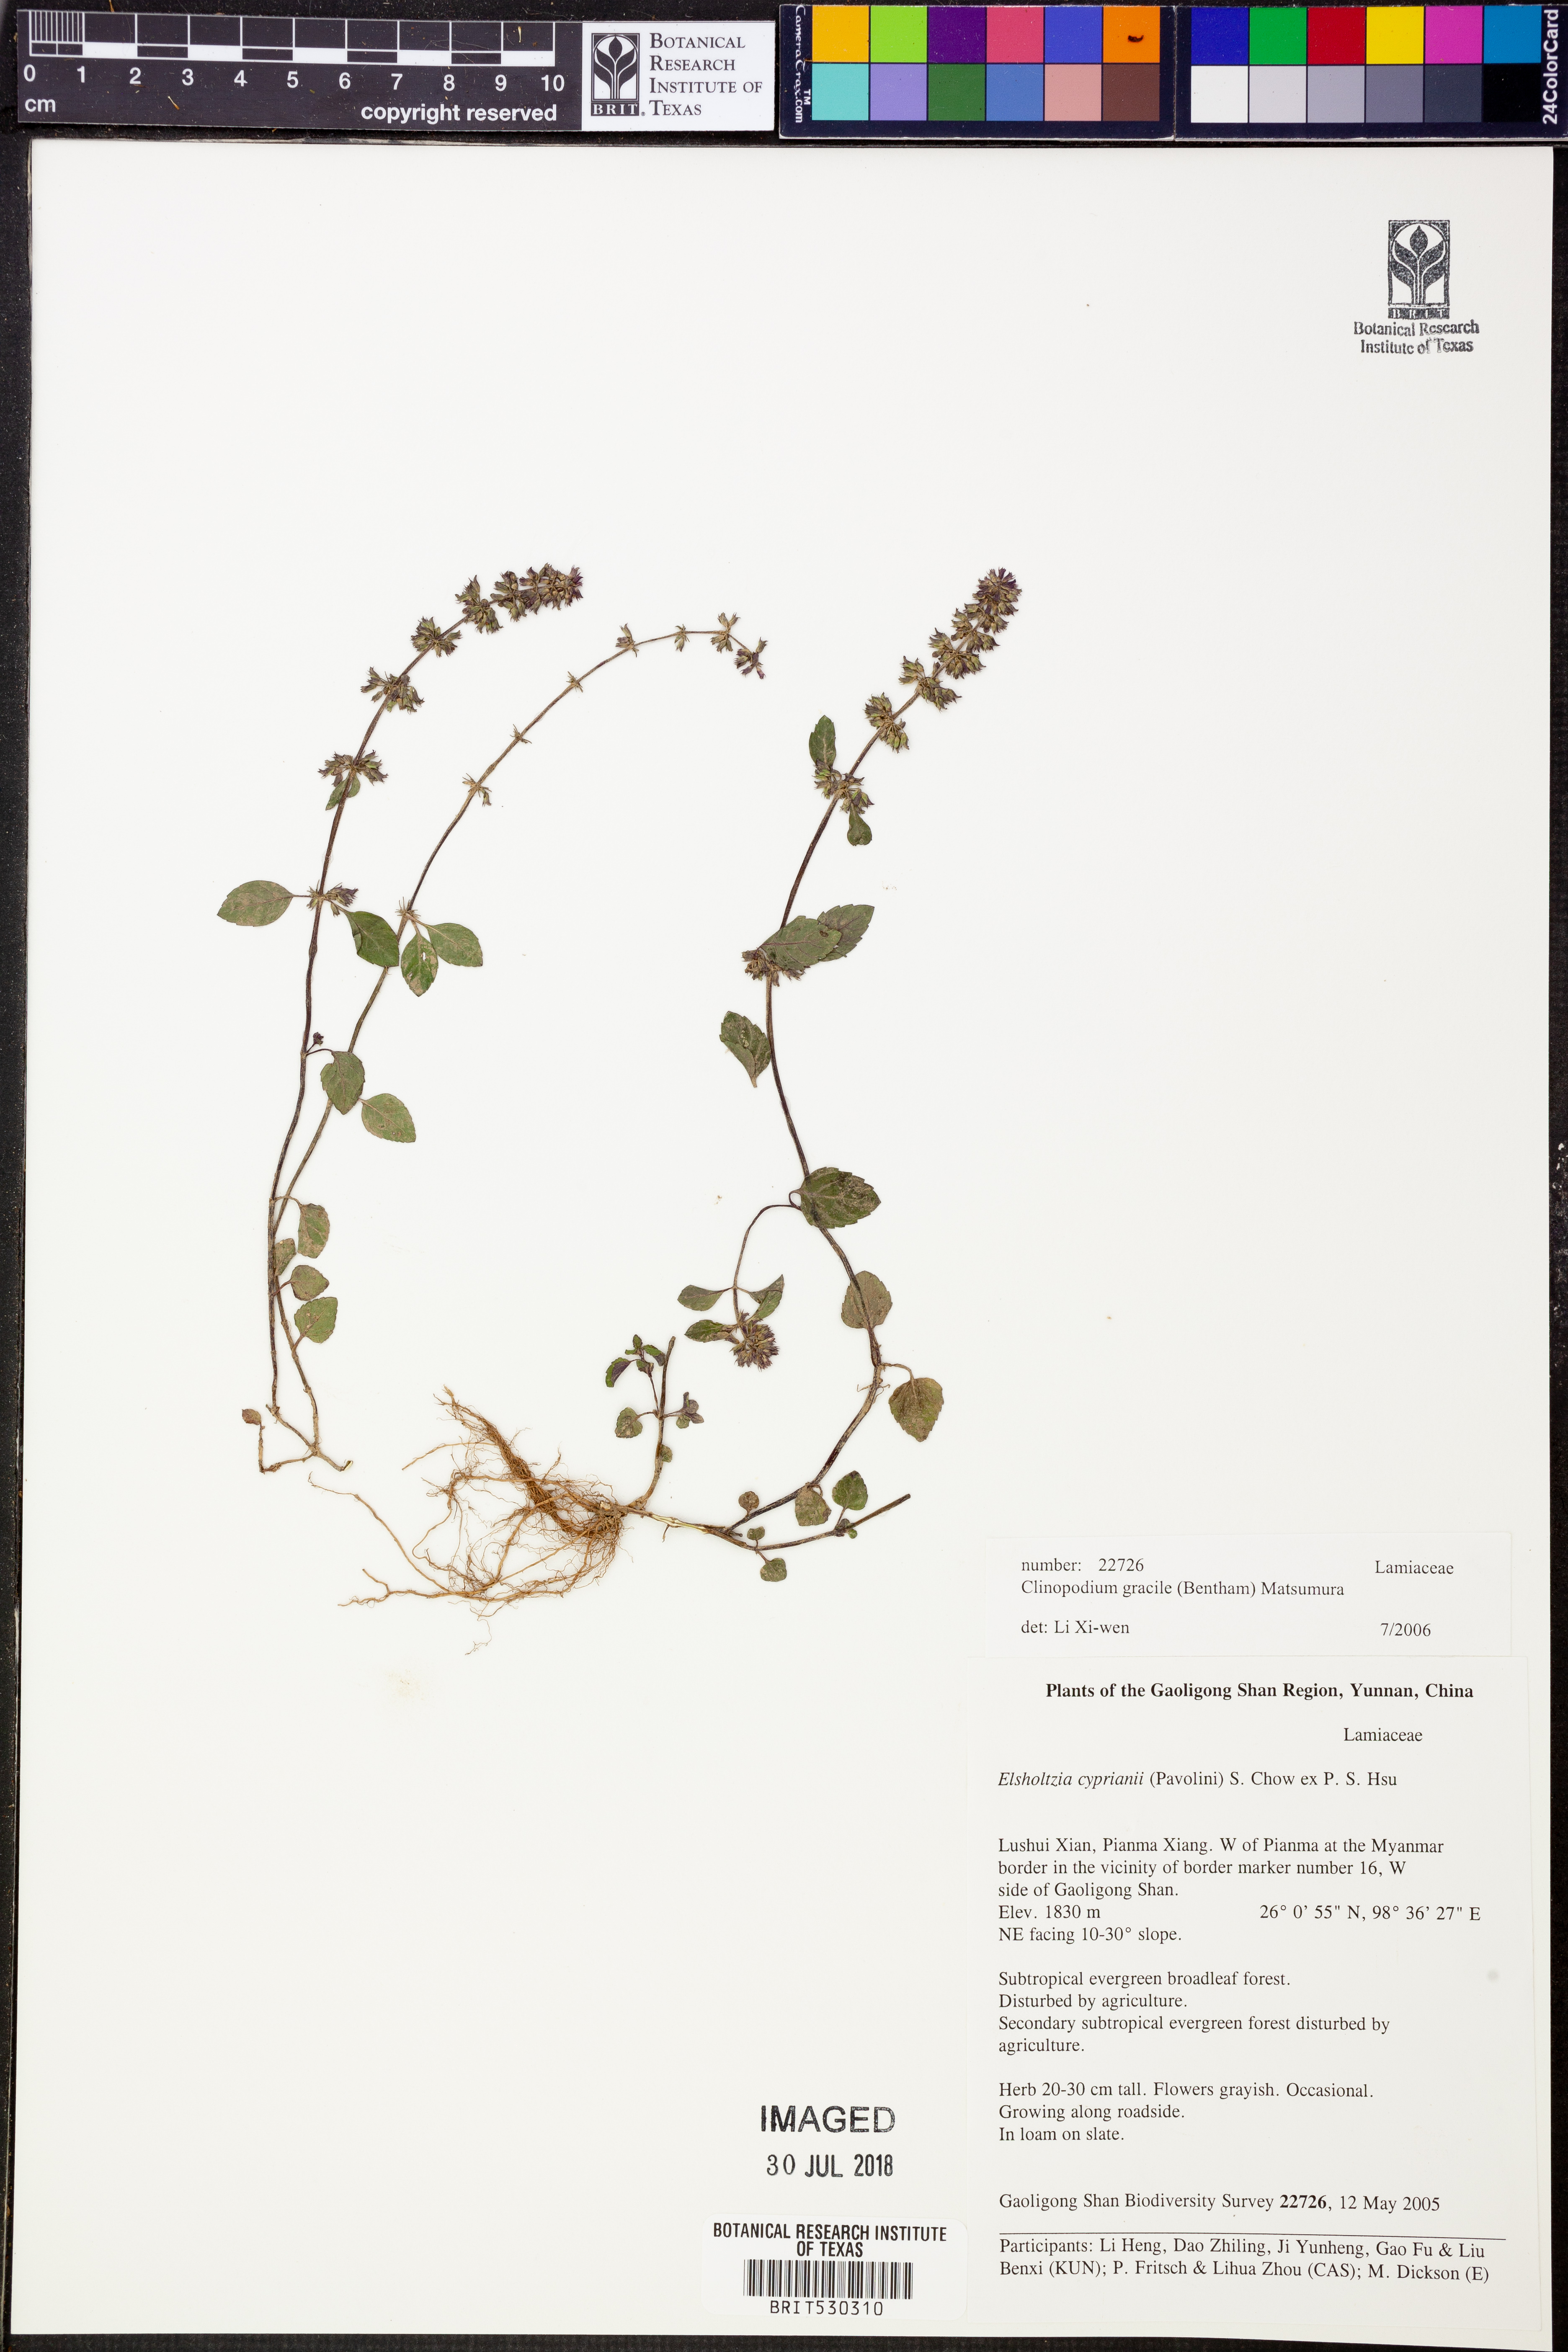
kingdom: Plantae
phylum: Tracheophyta
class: Magnoliopsida
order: Lamiales
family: Lamiaceae
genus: Clinopodium
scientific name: Clinopodium gracile
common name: Slender wild basil
